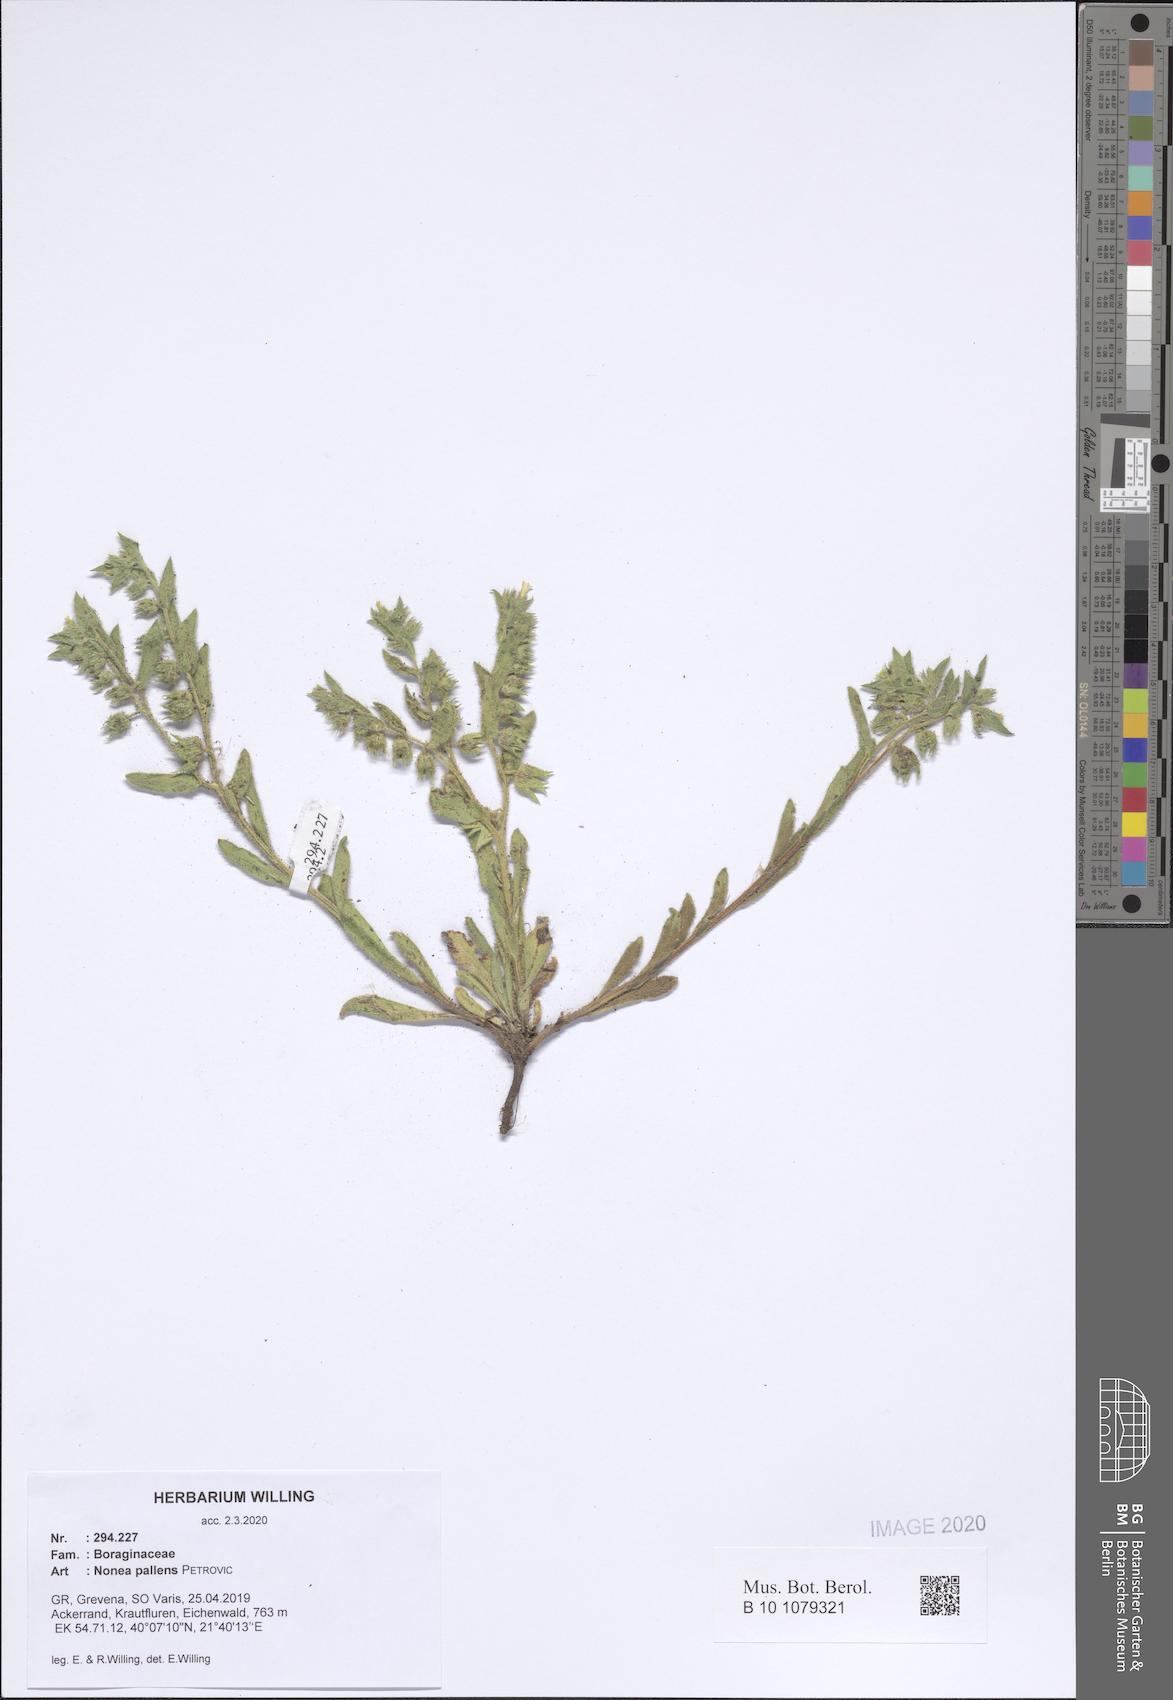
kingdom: Plantae
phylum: Tracheophyta
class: Magnoliopsida
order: Boraginales
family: Boraginaceae
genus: Nonea
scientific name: Nonea pallens
